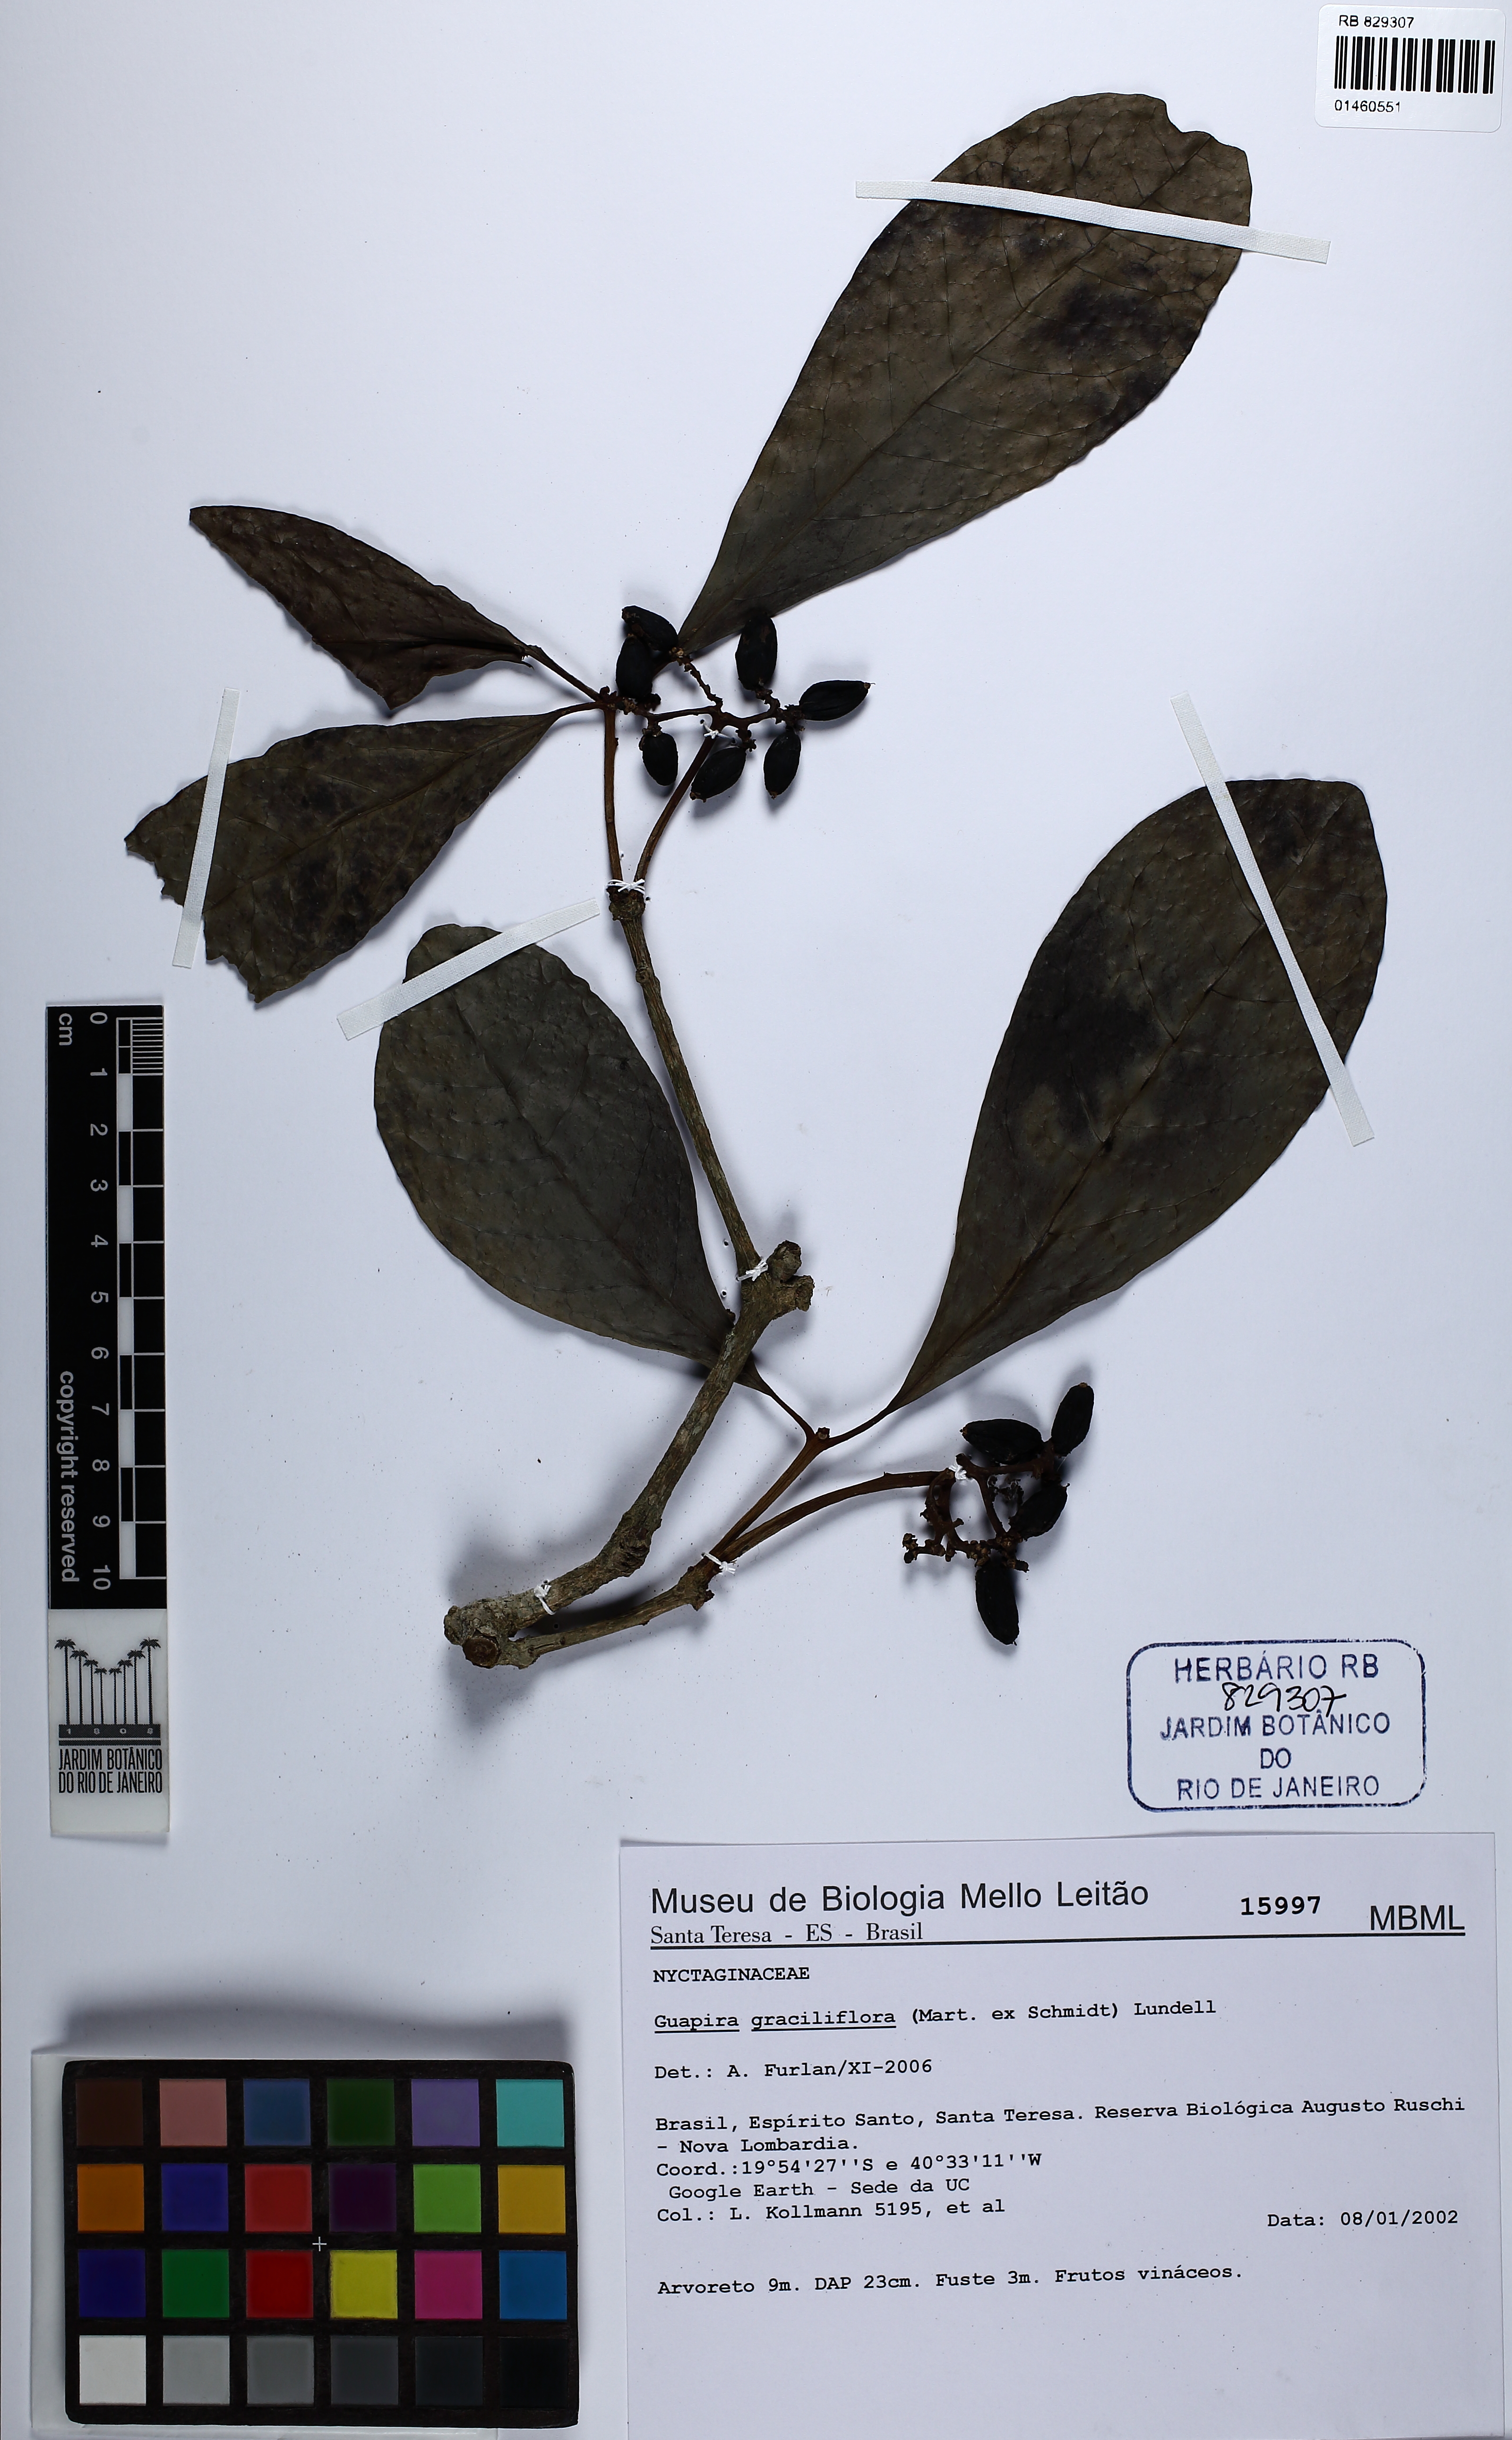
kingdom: Plantae
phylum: Tracheophyta
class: Magnoliopsida
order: Caryophyllales
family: Nyctaginaceae
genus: Guapira
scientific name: Guapira graciliflora
